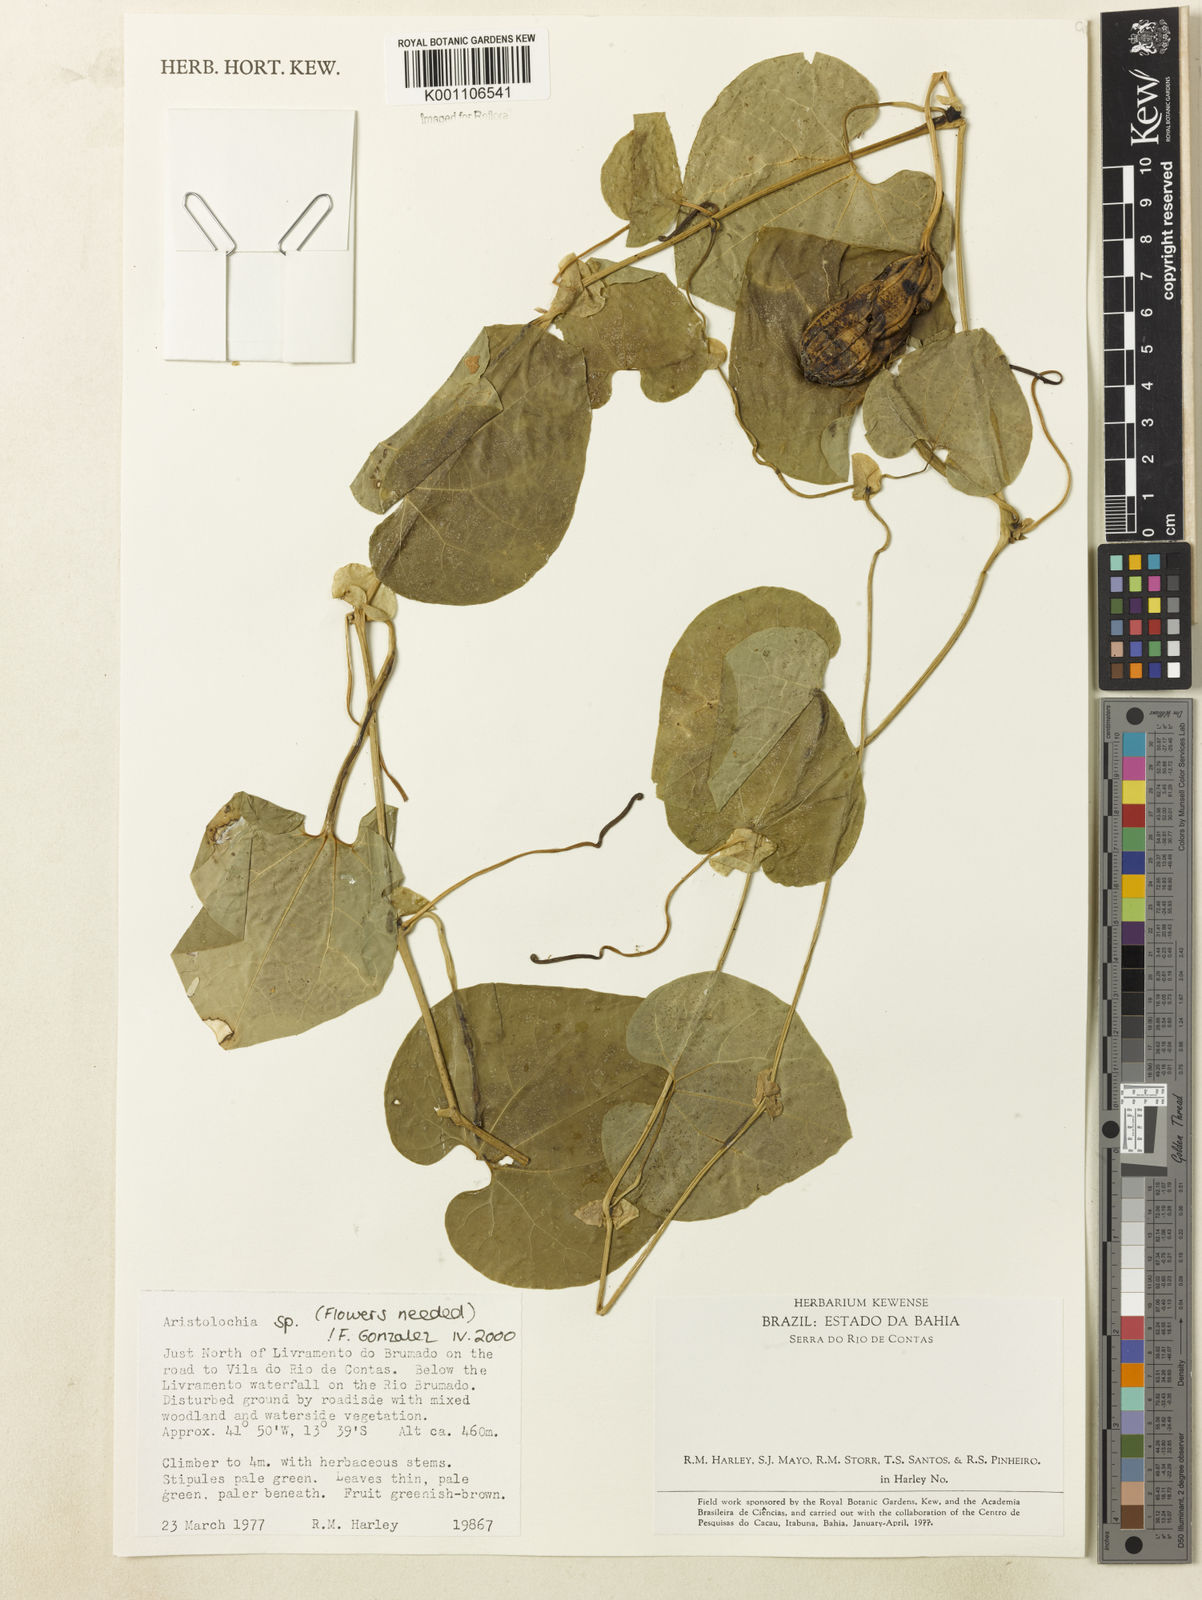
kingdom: Plantae
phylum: Tracheophyta
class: Magnoliopsida
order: Piperales
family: Aristolochiaceae
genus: Aristolochia
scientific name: Aristolochia
